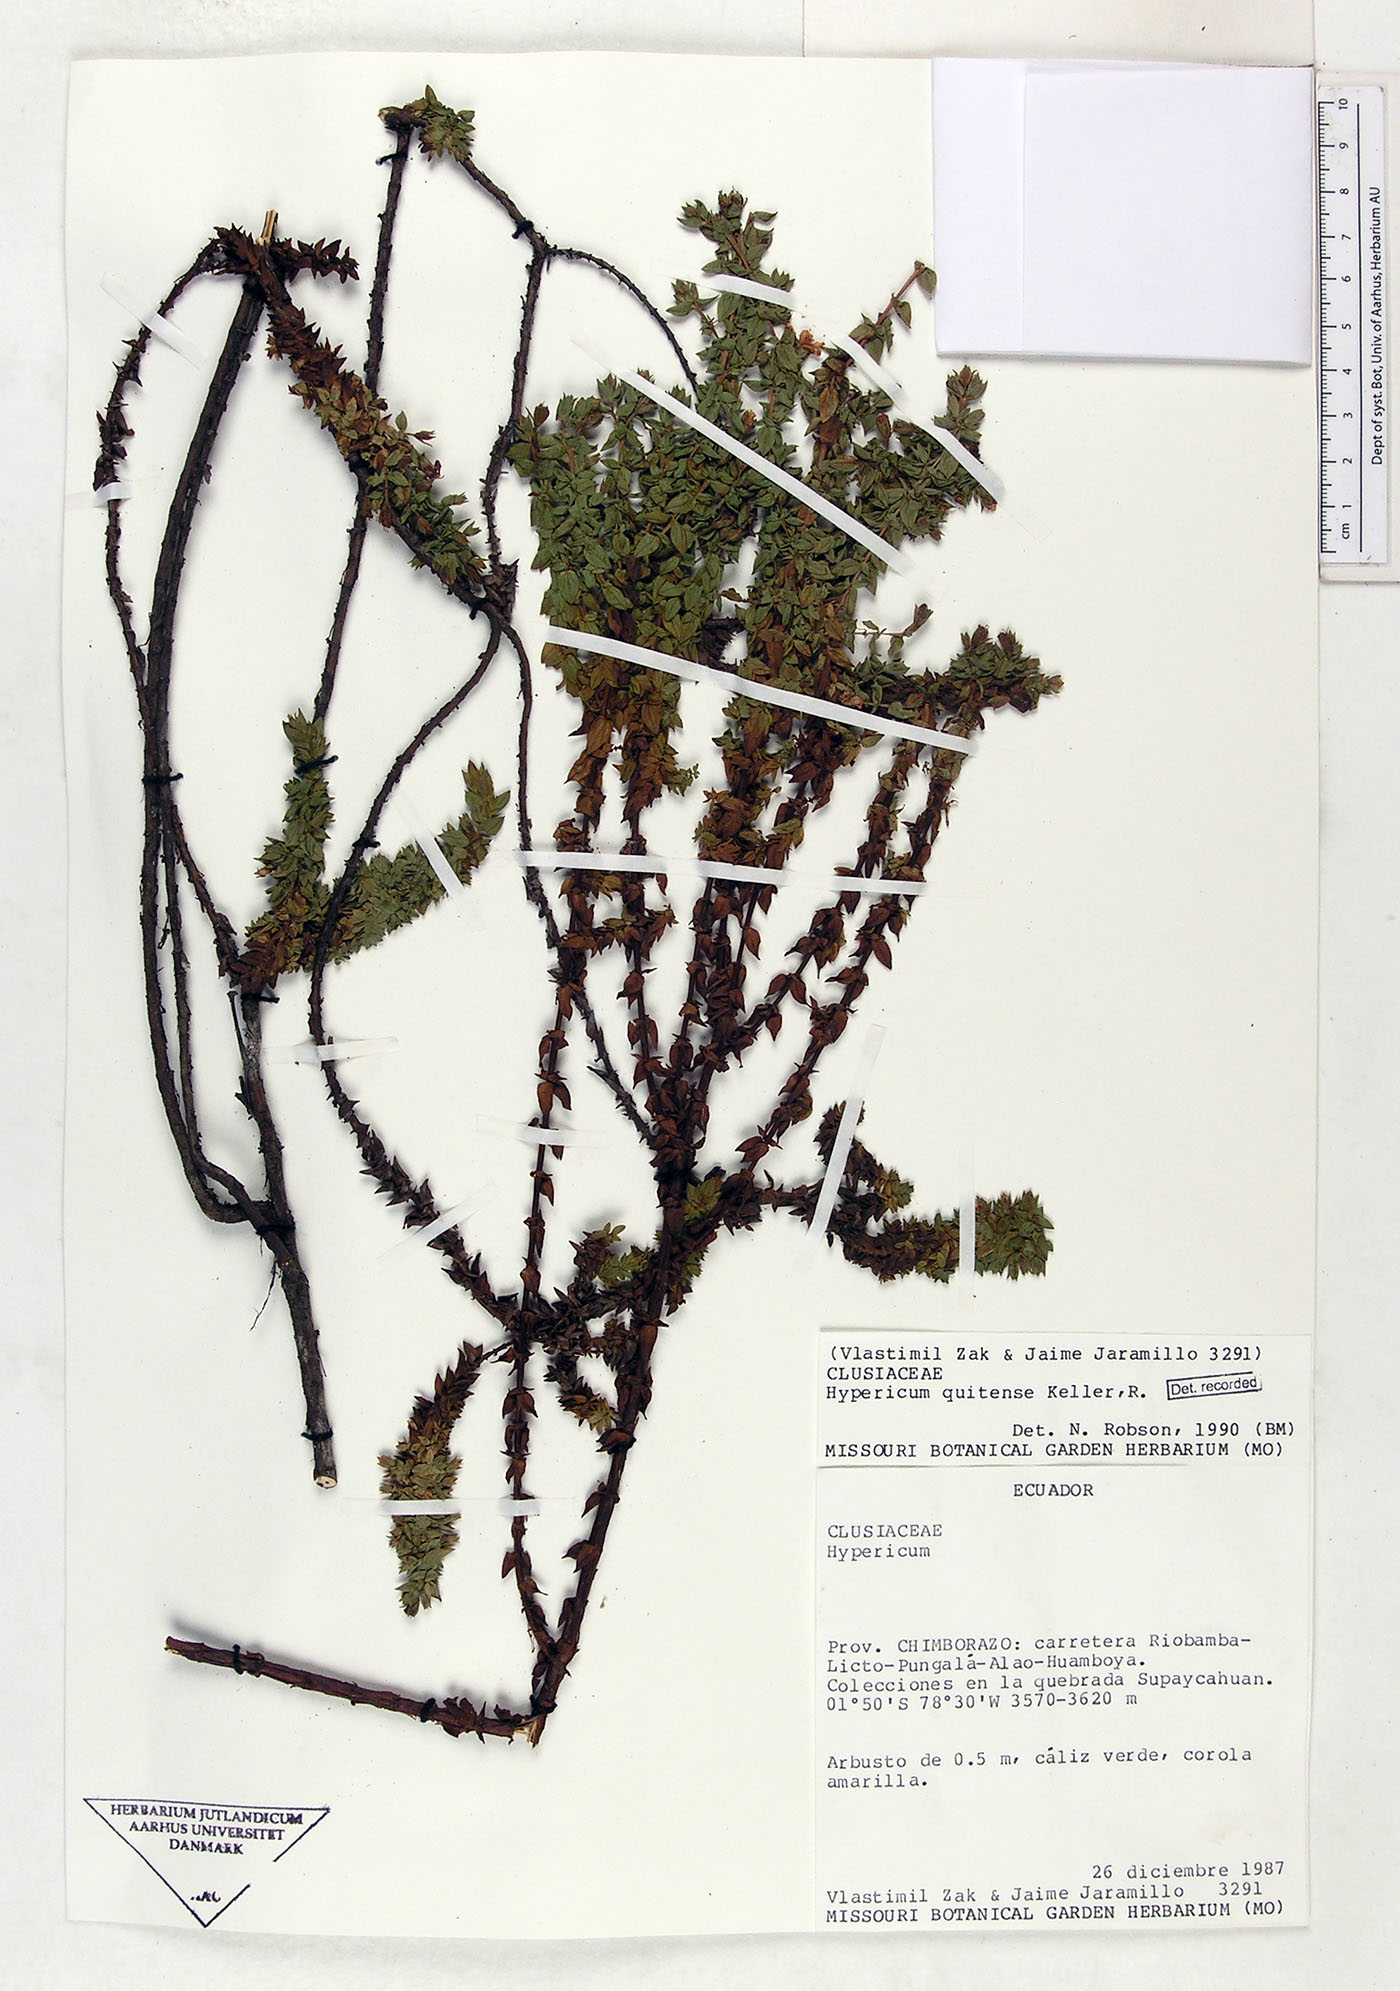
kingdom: Plantae
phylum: Tracheophyta
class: Magnoliopsida
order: Malpighiales
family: Hypericaceae
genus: Hypericum
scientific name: Hypericum quitense
